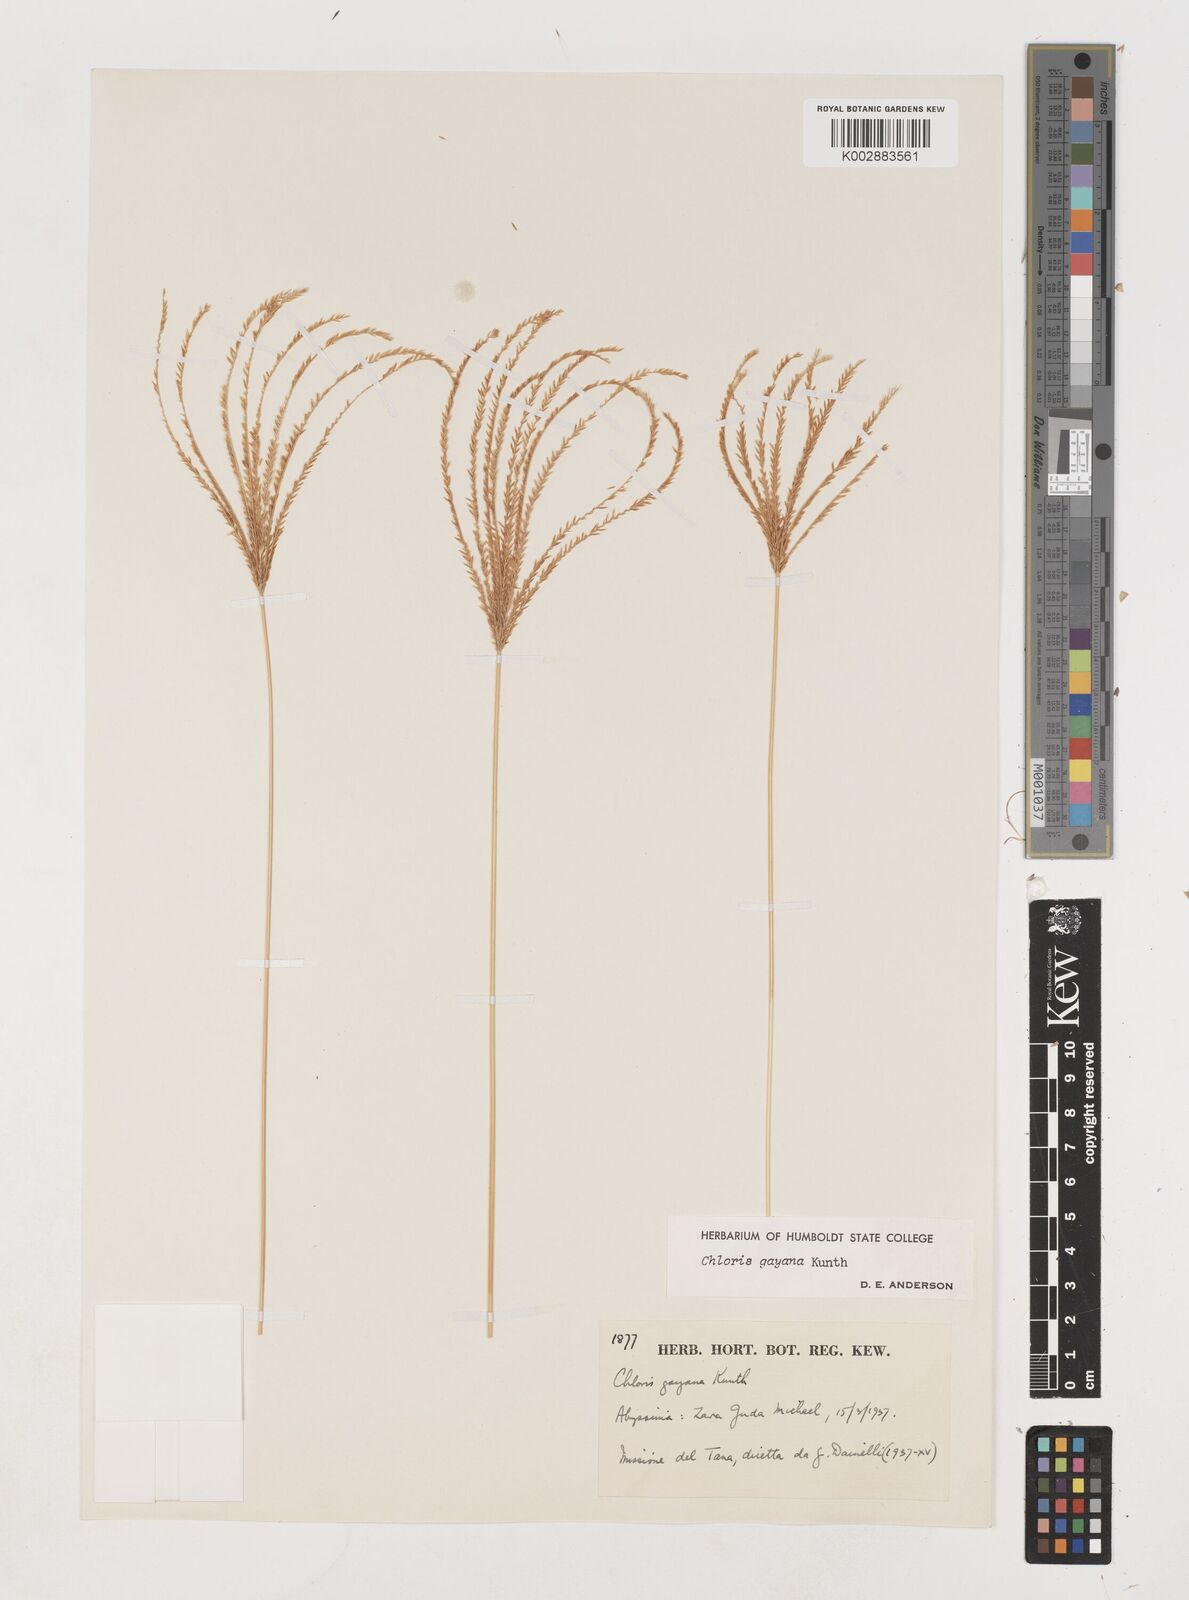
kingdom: Plantae
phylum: Tracheophyta
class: Liliopsida
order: Poales
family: Poaceae
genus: Chloris
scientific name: Chloris gayana
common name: Rhodes grass
